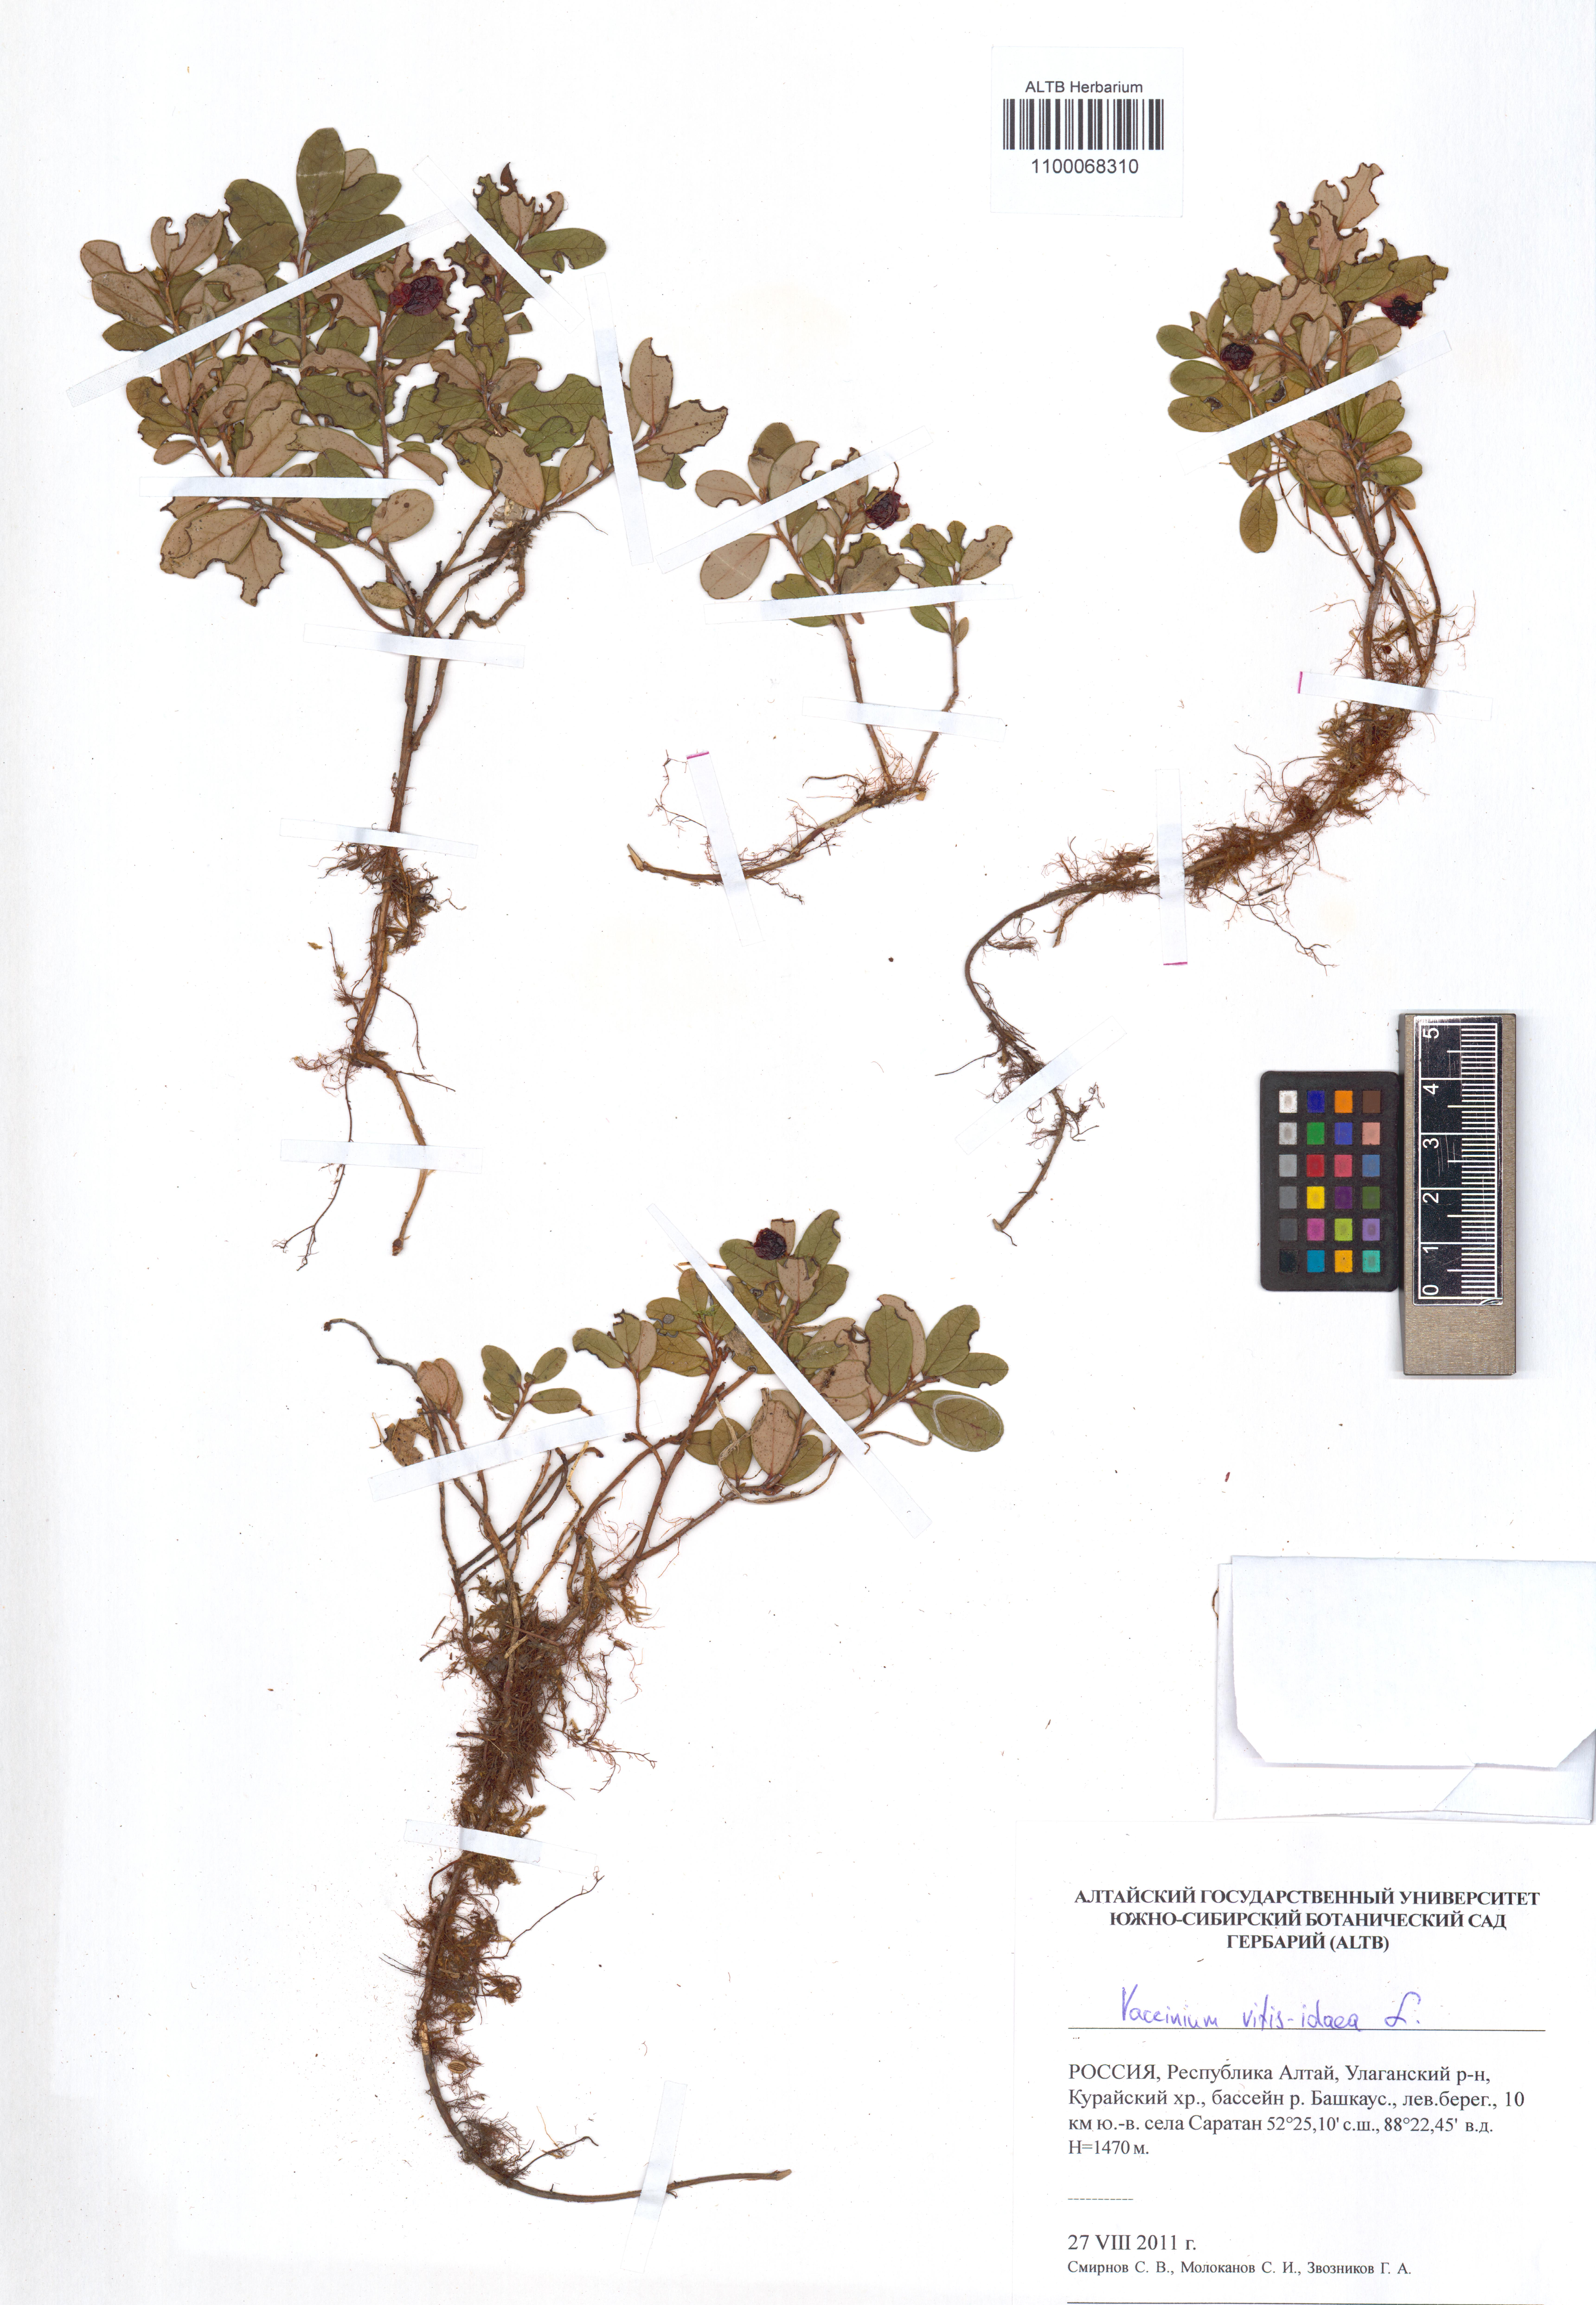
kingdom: Plantae
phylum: Tracheophyta
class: Magnoliopsida
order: Ericales
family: Ericaceae
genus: Vaccinium
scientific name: Vaccinium vitis-idaea
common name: Cowberry
